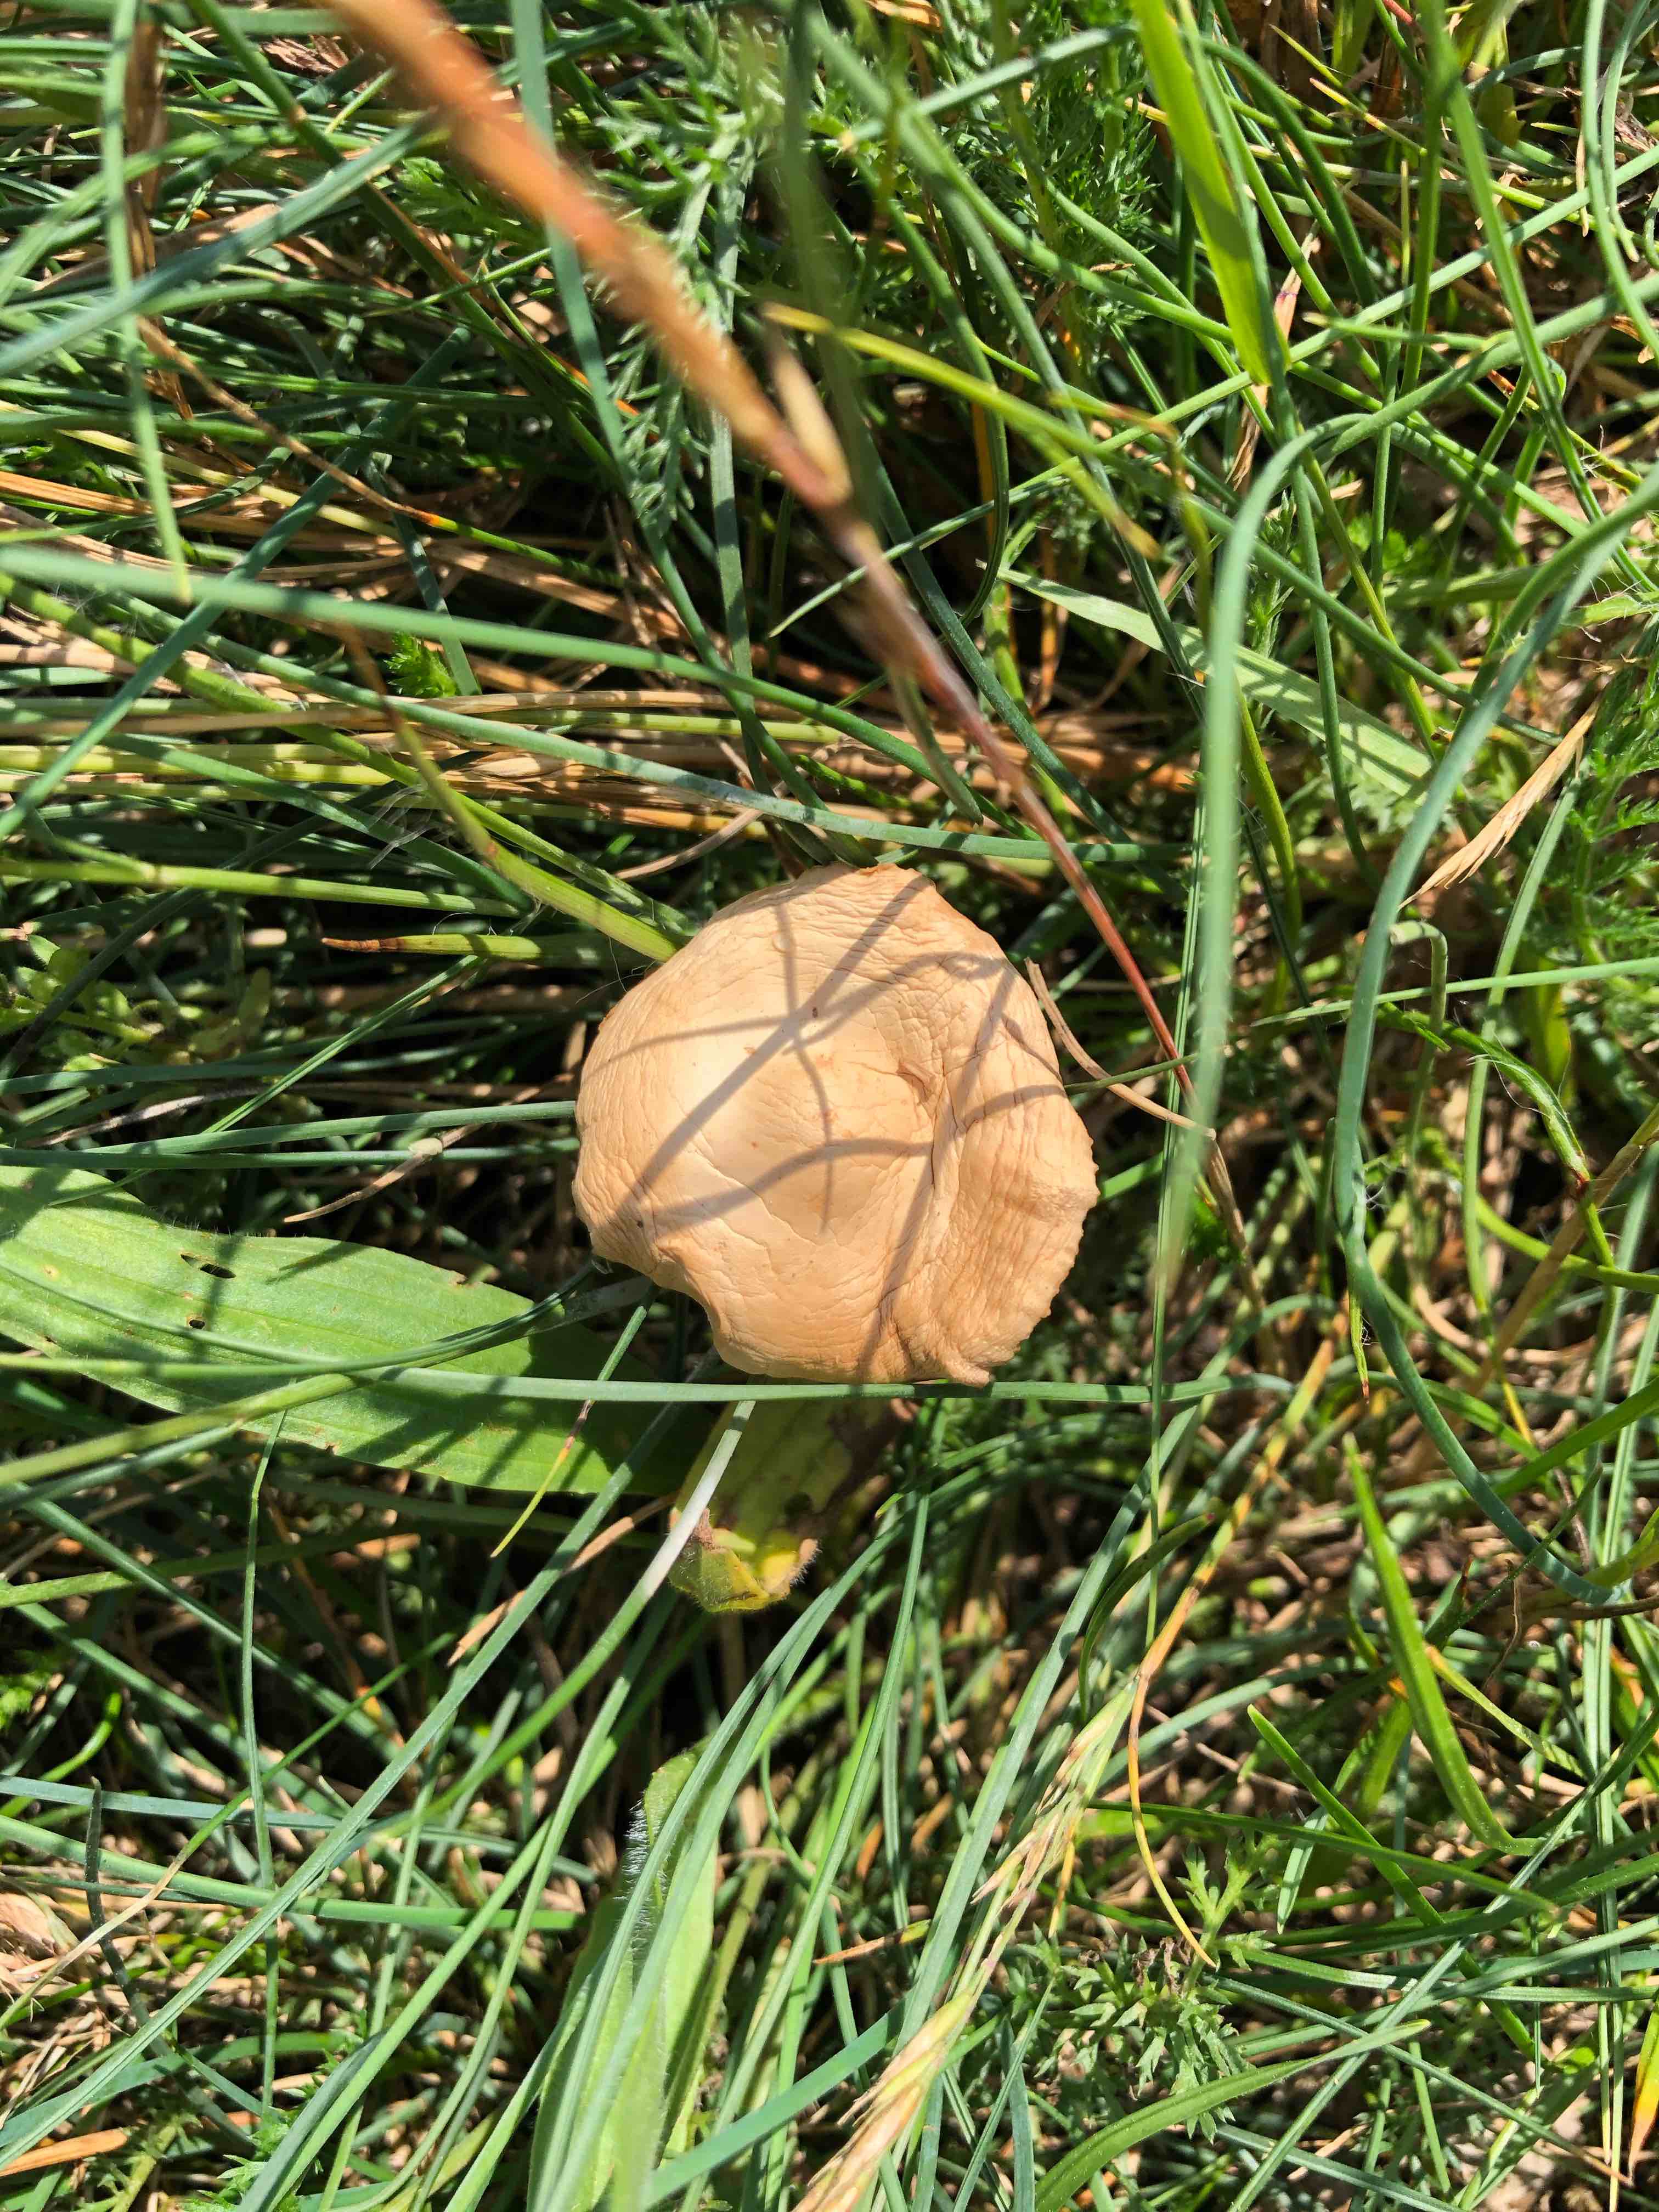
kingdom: Fungi
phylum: Basidiomycota
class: Agaricomycetes
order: Agaricales
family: Marasmiaceae
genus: Marasmius
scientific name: Marasmius oreades
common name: elledans-bruskhat
